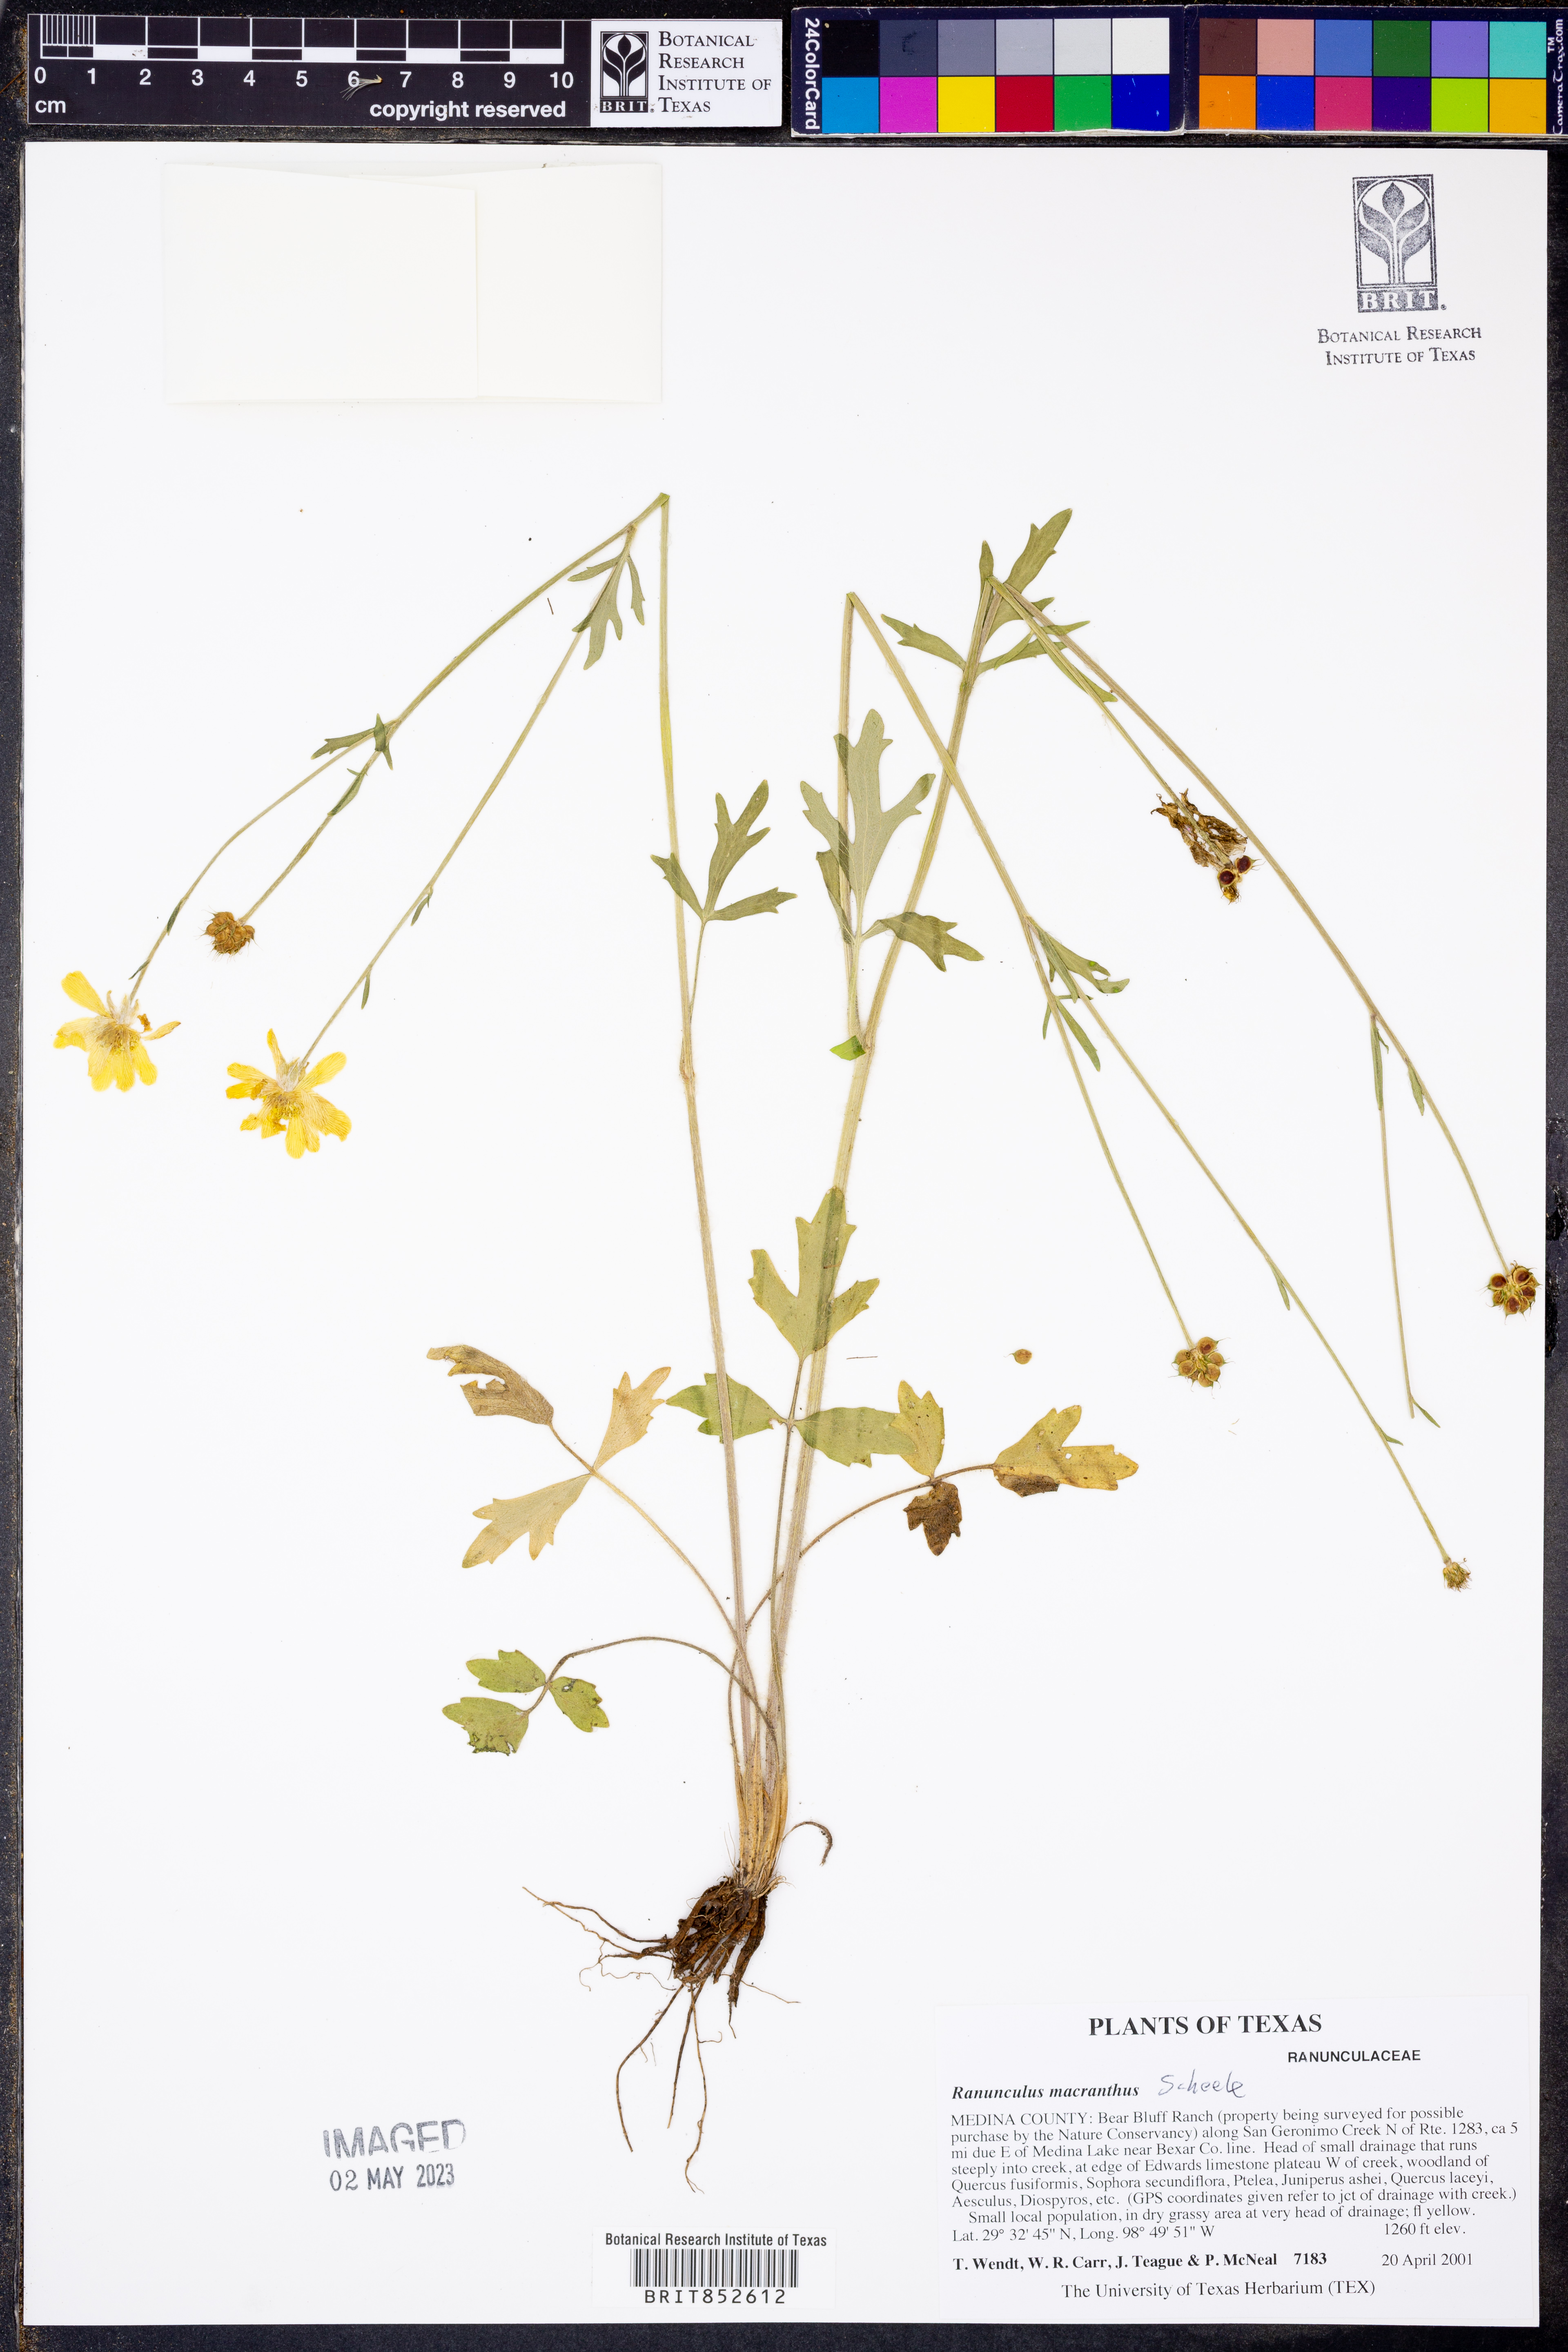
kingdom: Plantae
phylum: Tracheophyta
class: Magnoliopsida
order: Ranunculales
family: Ranunculaceae
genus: Ranunculus
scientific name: Ranunculus macranthus
